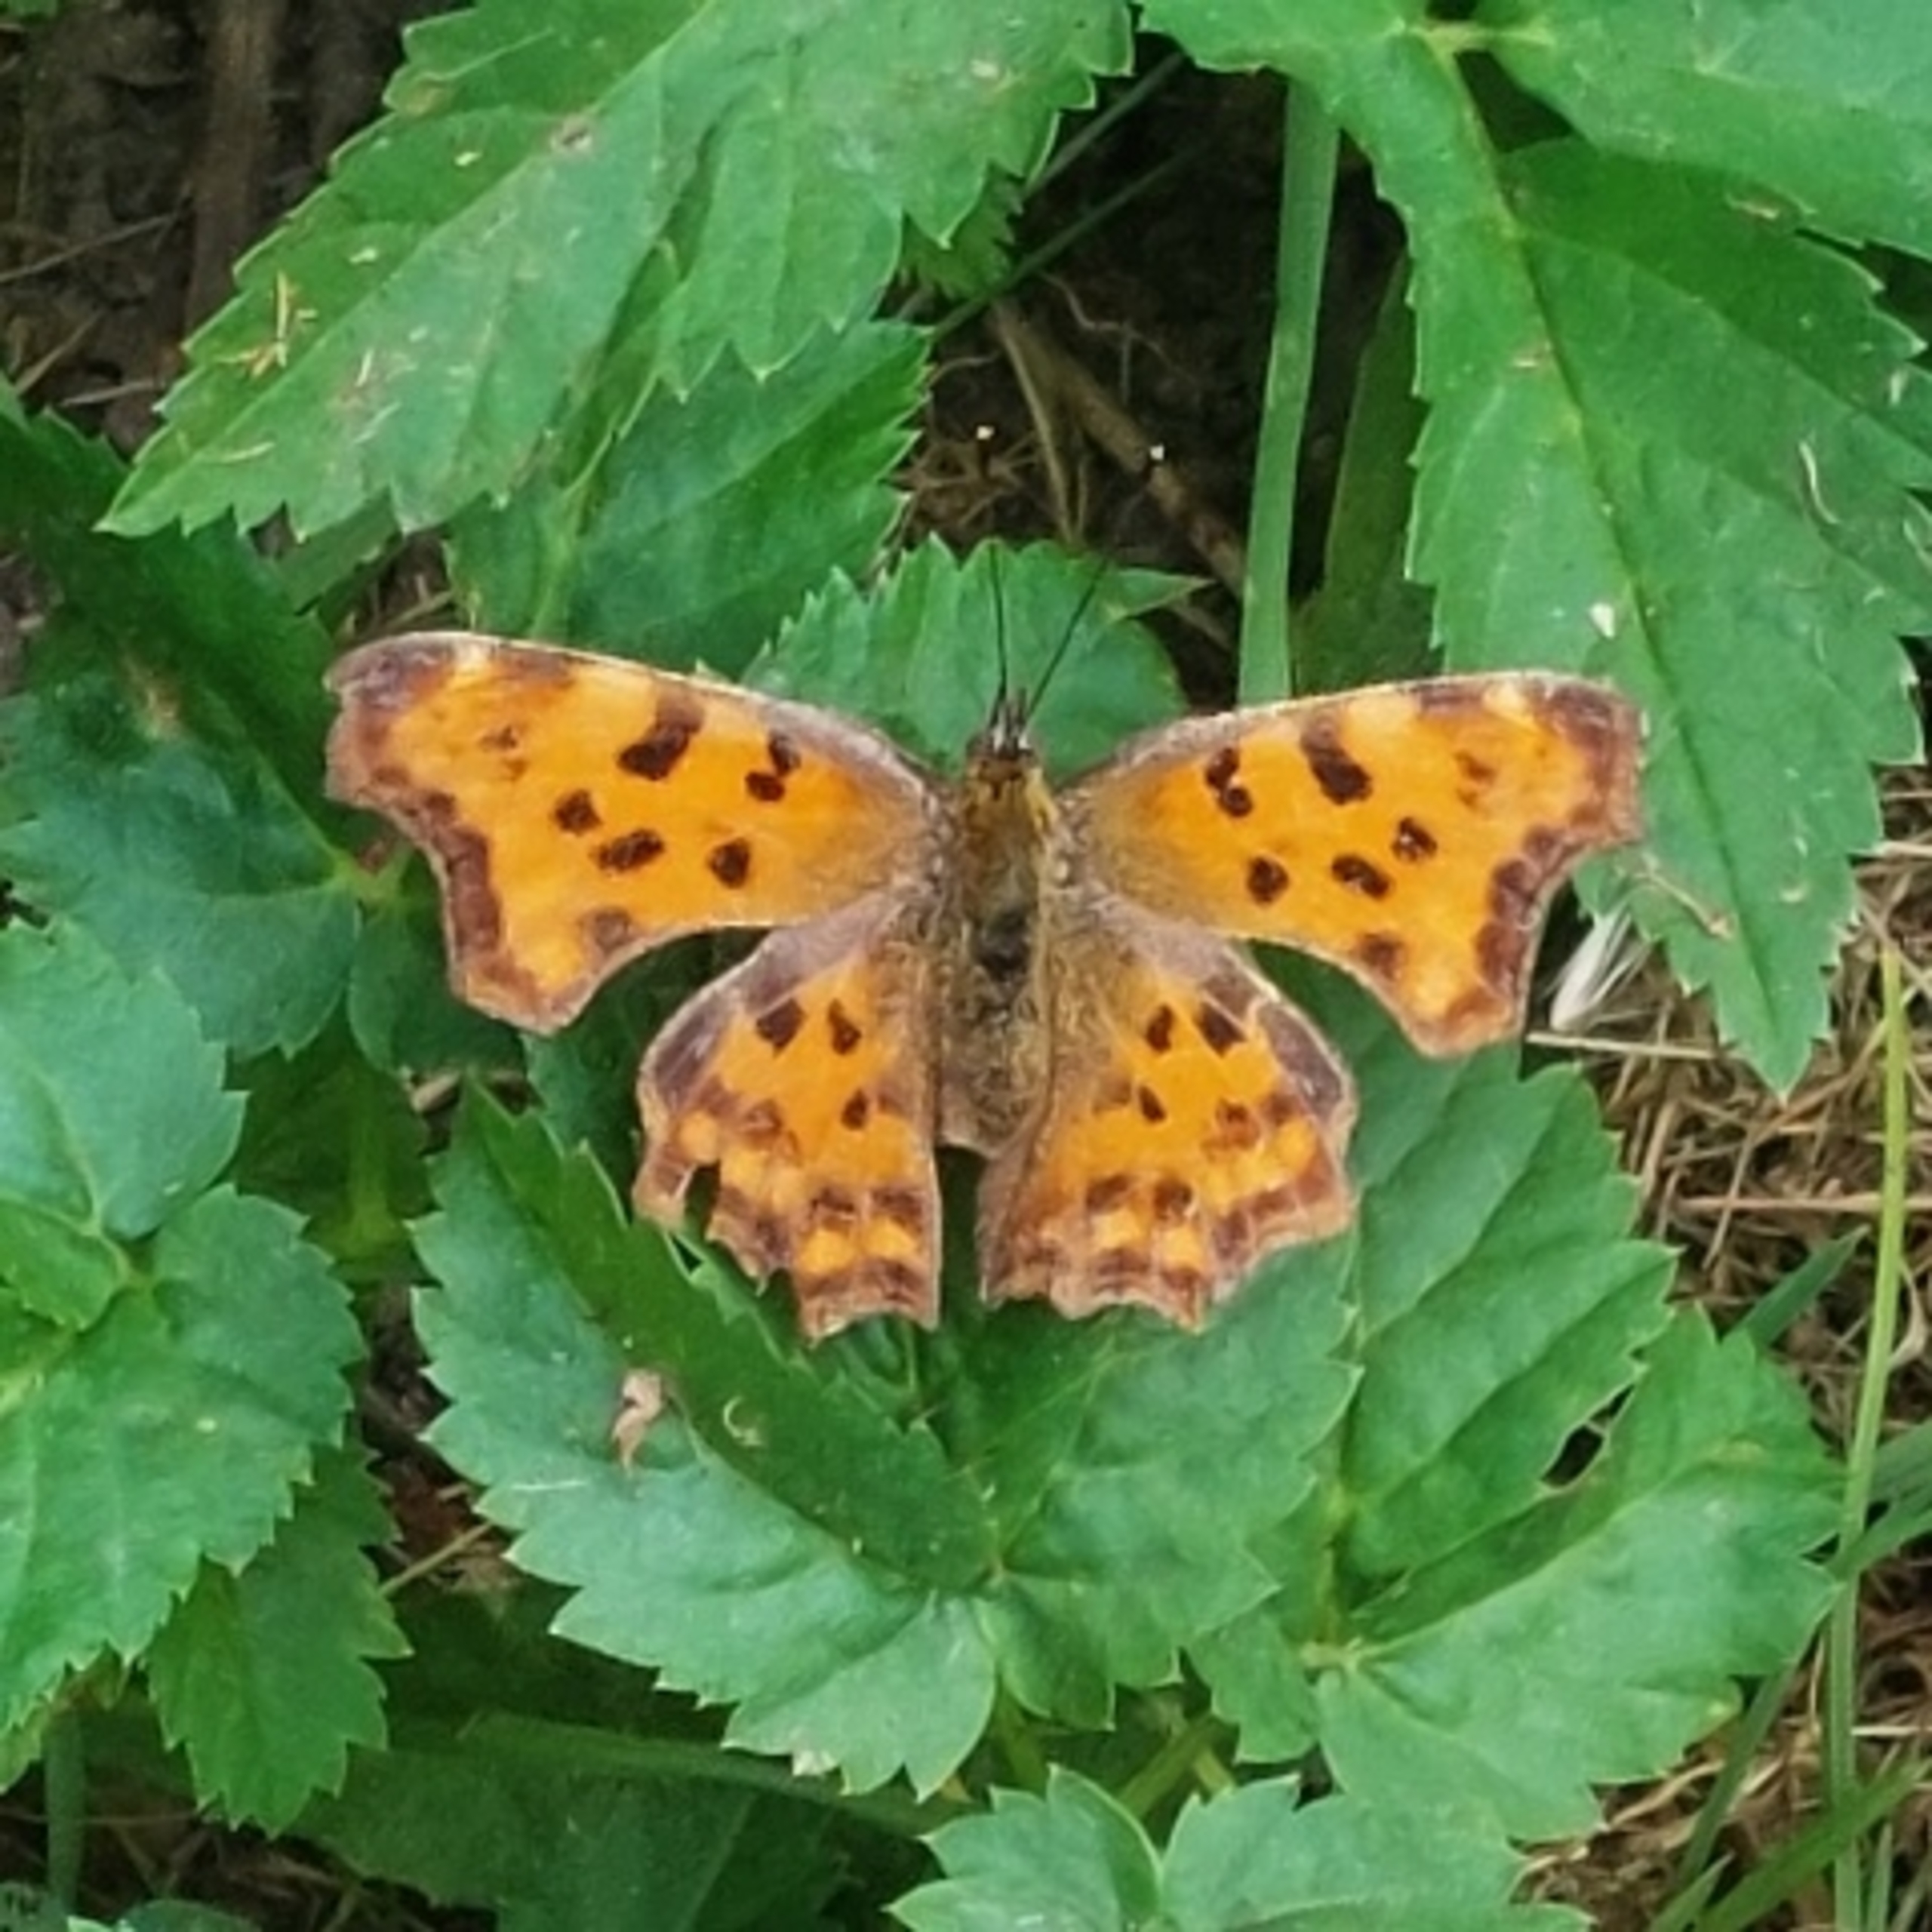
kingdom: Animalia
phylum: Arthropoda
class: Insecta
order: Lepidoptera
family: Nymphalidae
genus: Polygonia
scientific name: Polygonia c-album
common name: Det hvide C
